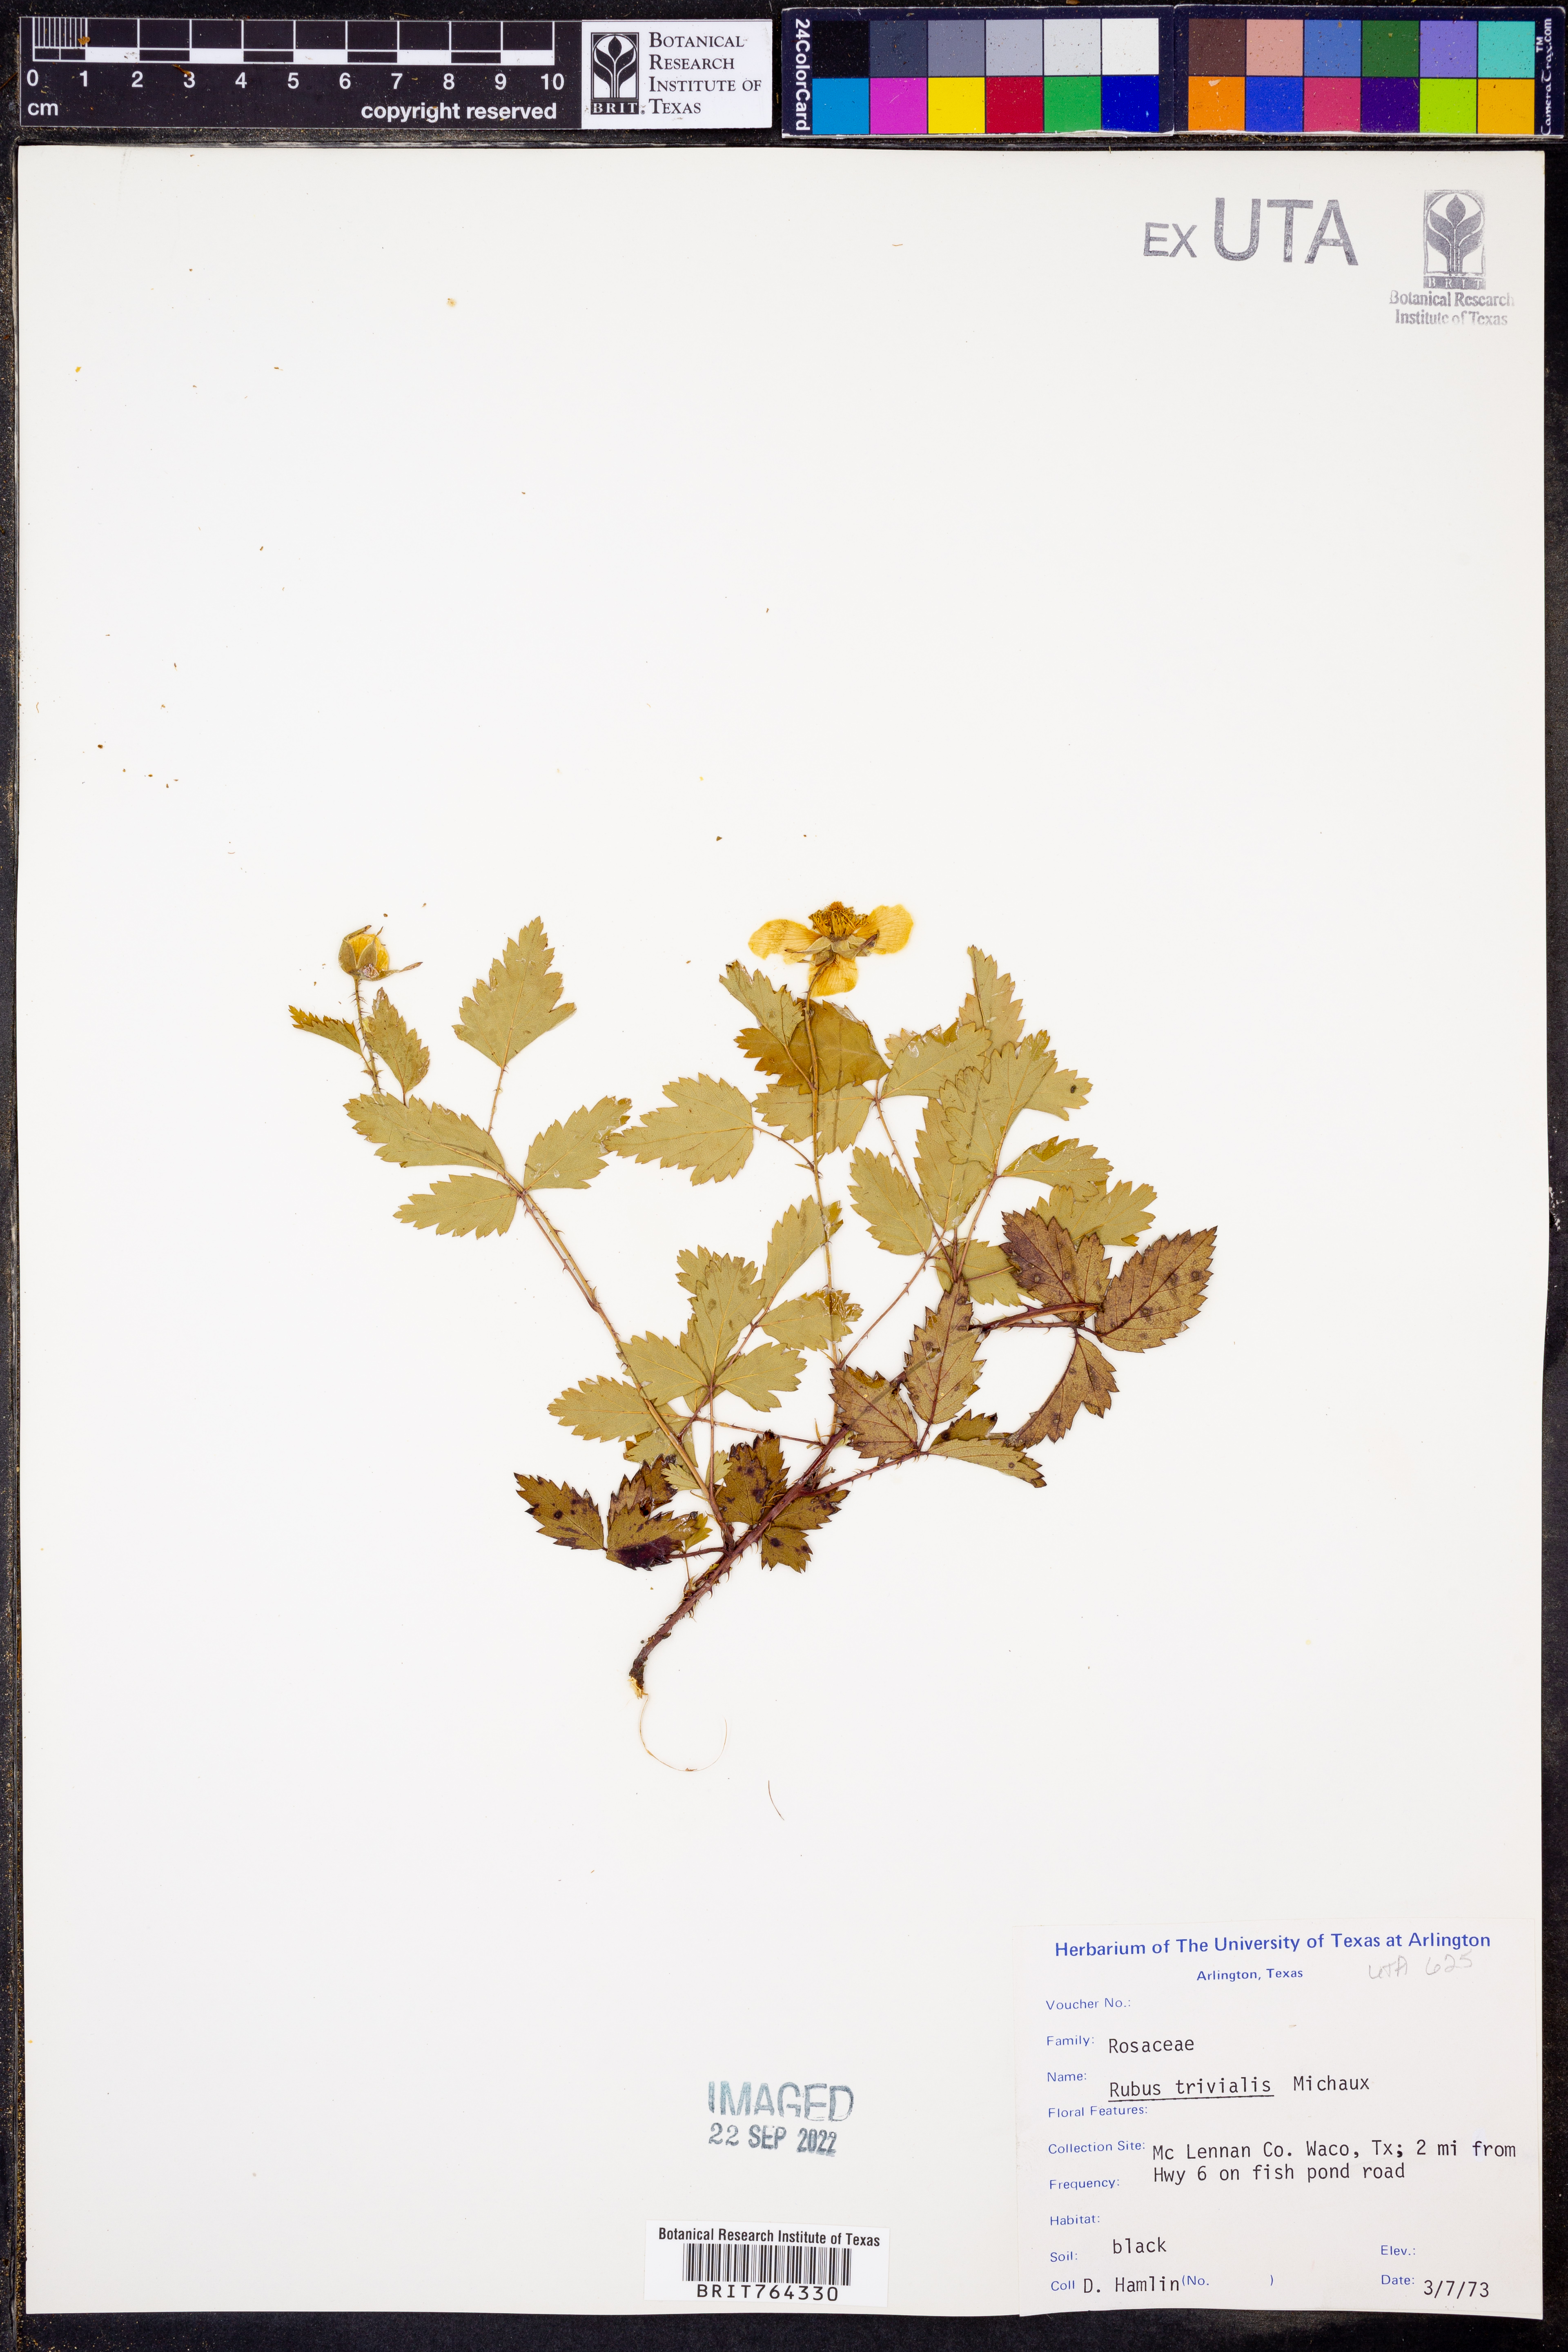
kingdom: Plantae
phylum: Tracheophyta
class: Magnoliopsida
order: Rosales
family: Rosaceae
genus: Rubus
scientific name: Rubus trivialis
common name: Southern dewberry
